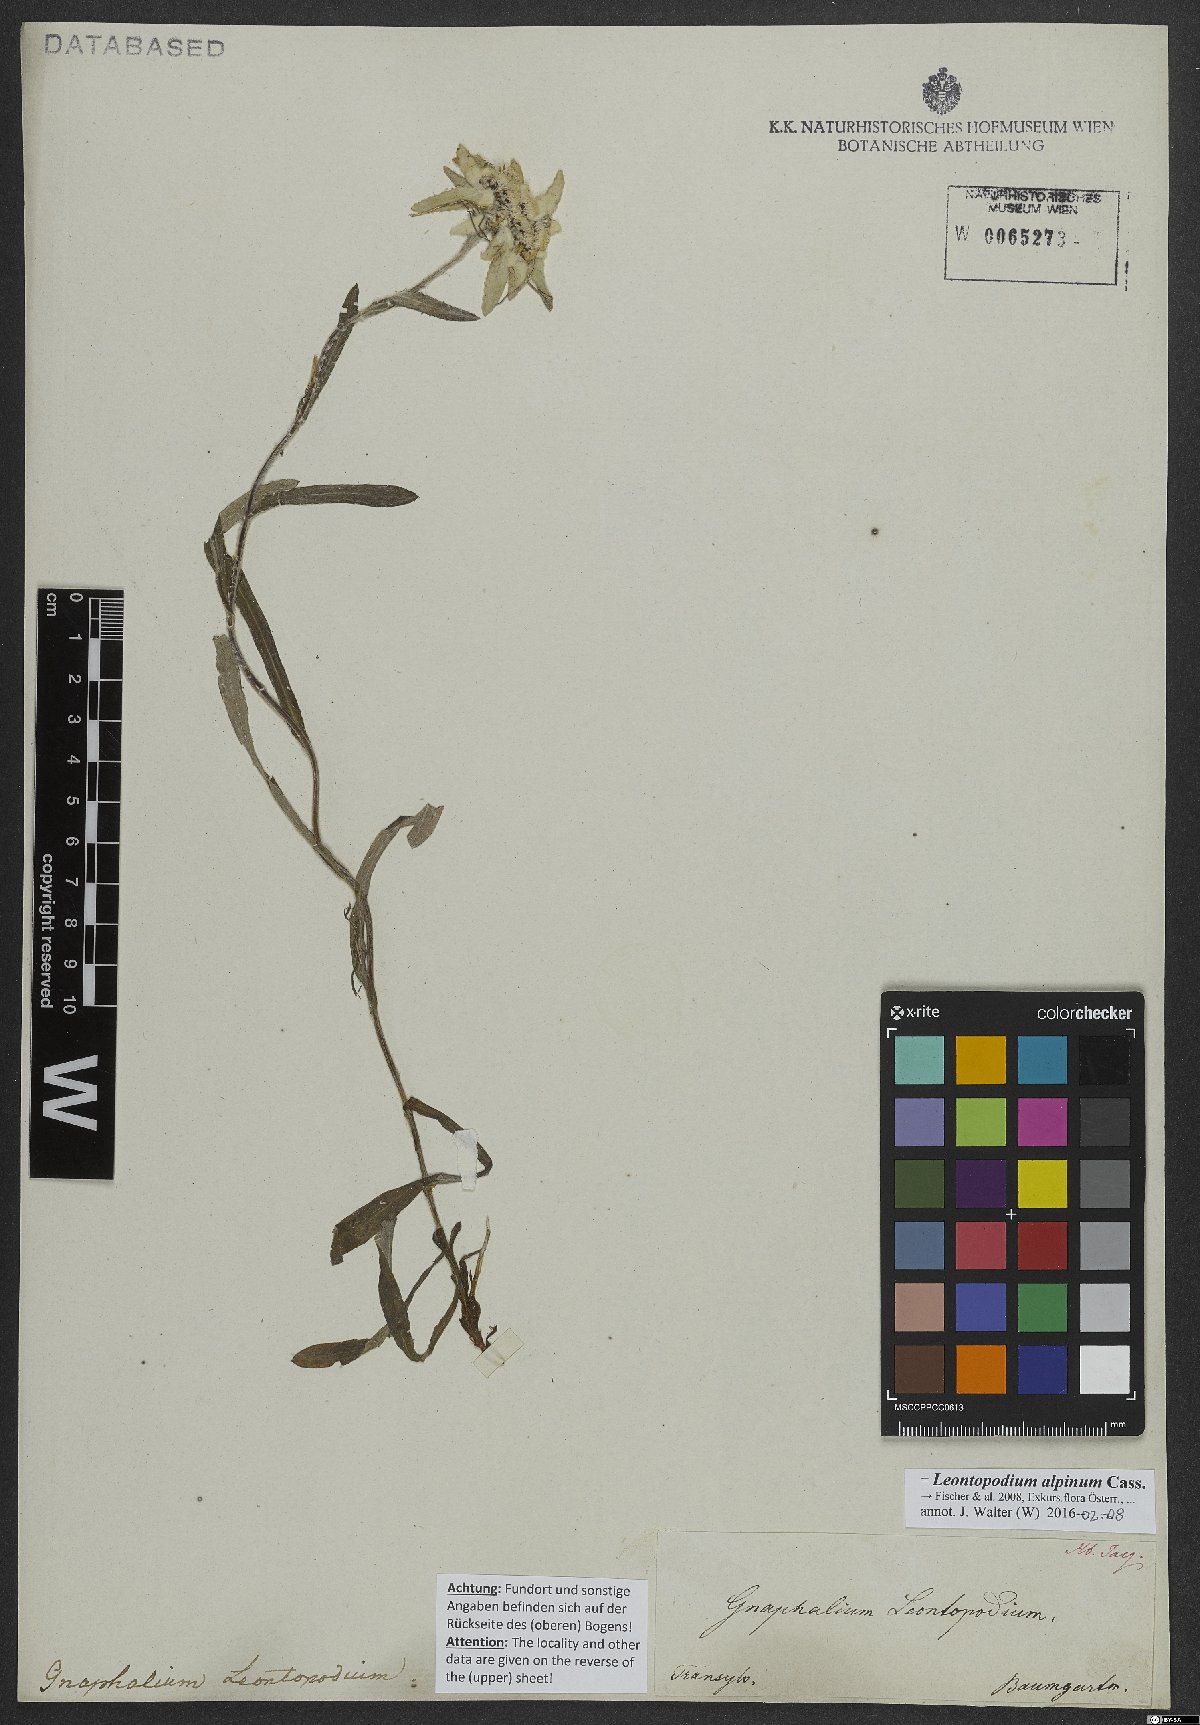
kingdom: Plantae
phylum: Tracheophyta
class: Magnoliopsida
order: Asterales
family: Asteraceae
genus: Leontopodium
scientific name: Leontopodium nivale
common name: Edelweiss
